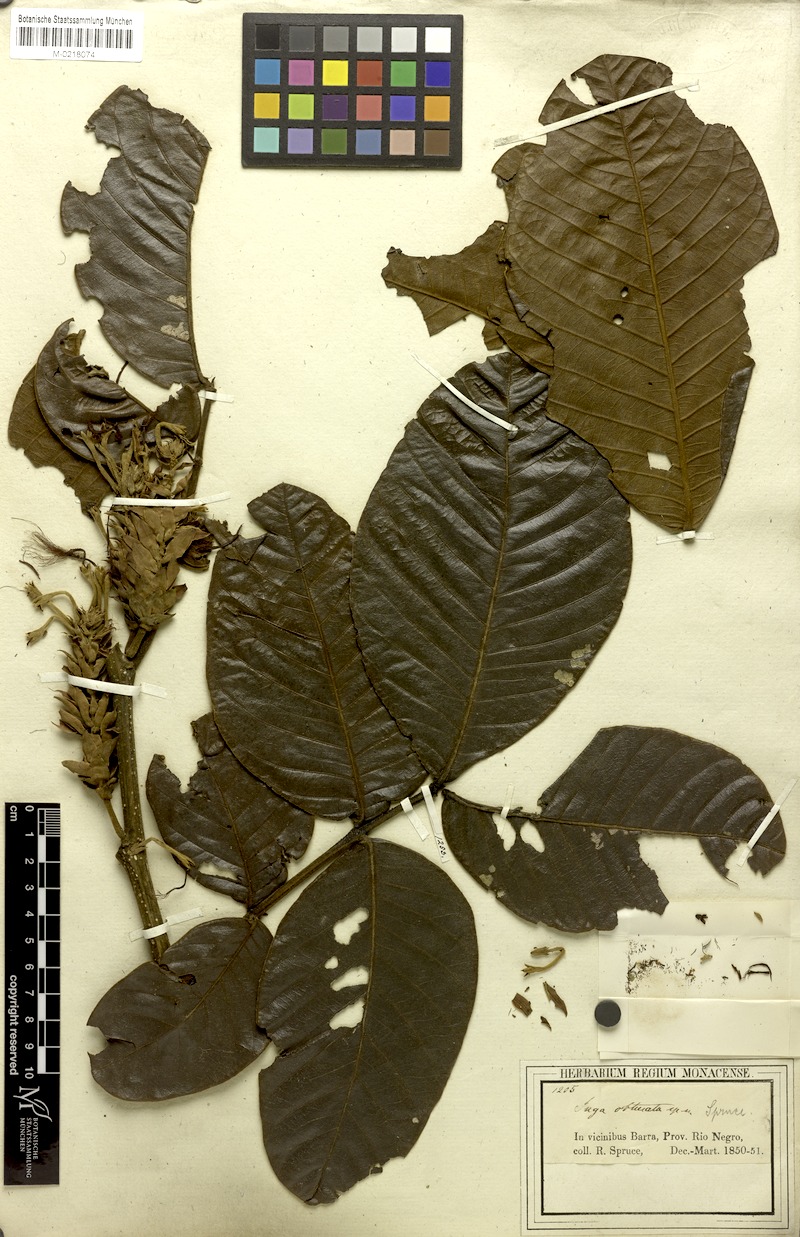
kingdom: Plantae
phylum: Tracheophyta
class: Magnoliopsida
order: Fabales
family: Fabaceae
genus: Inga
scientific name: Inga obtusata
